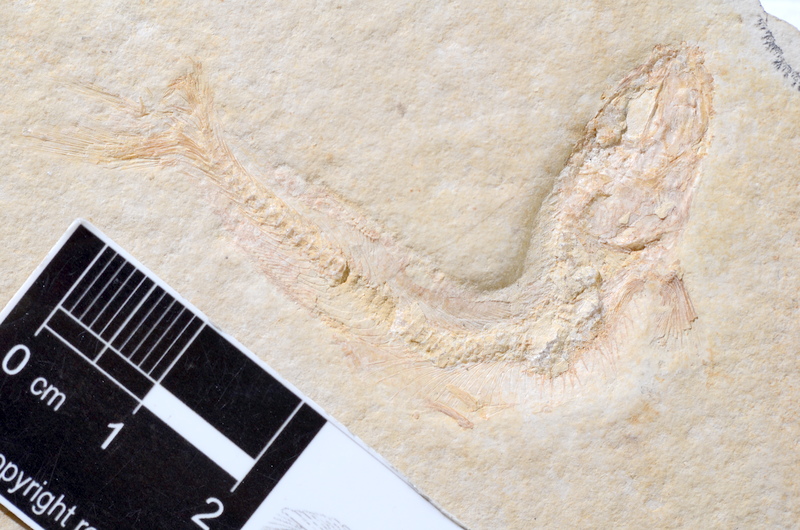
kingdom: Animalia
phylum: Chordata
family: Allothrissopidae
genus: Allothrissops
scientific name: Allothrissops
